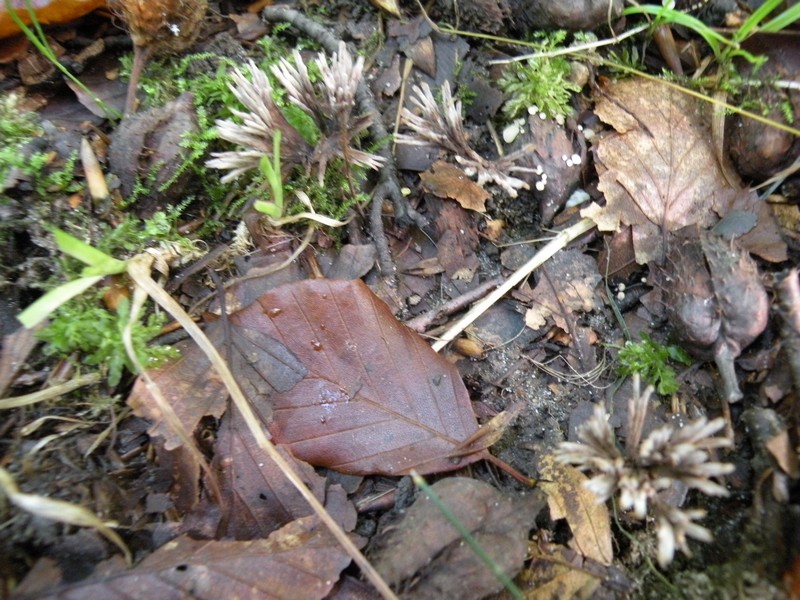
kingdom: Fungi
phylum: Basidiomycota
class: Agaricomycetes
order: Thelephorales
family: Thelephoraceae
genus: Thelephora
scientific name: Thelephora anthocephala
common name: busk-frynsesvamp
